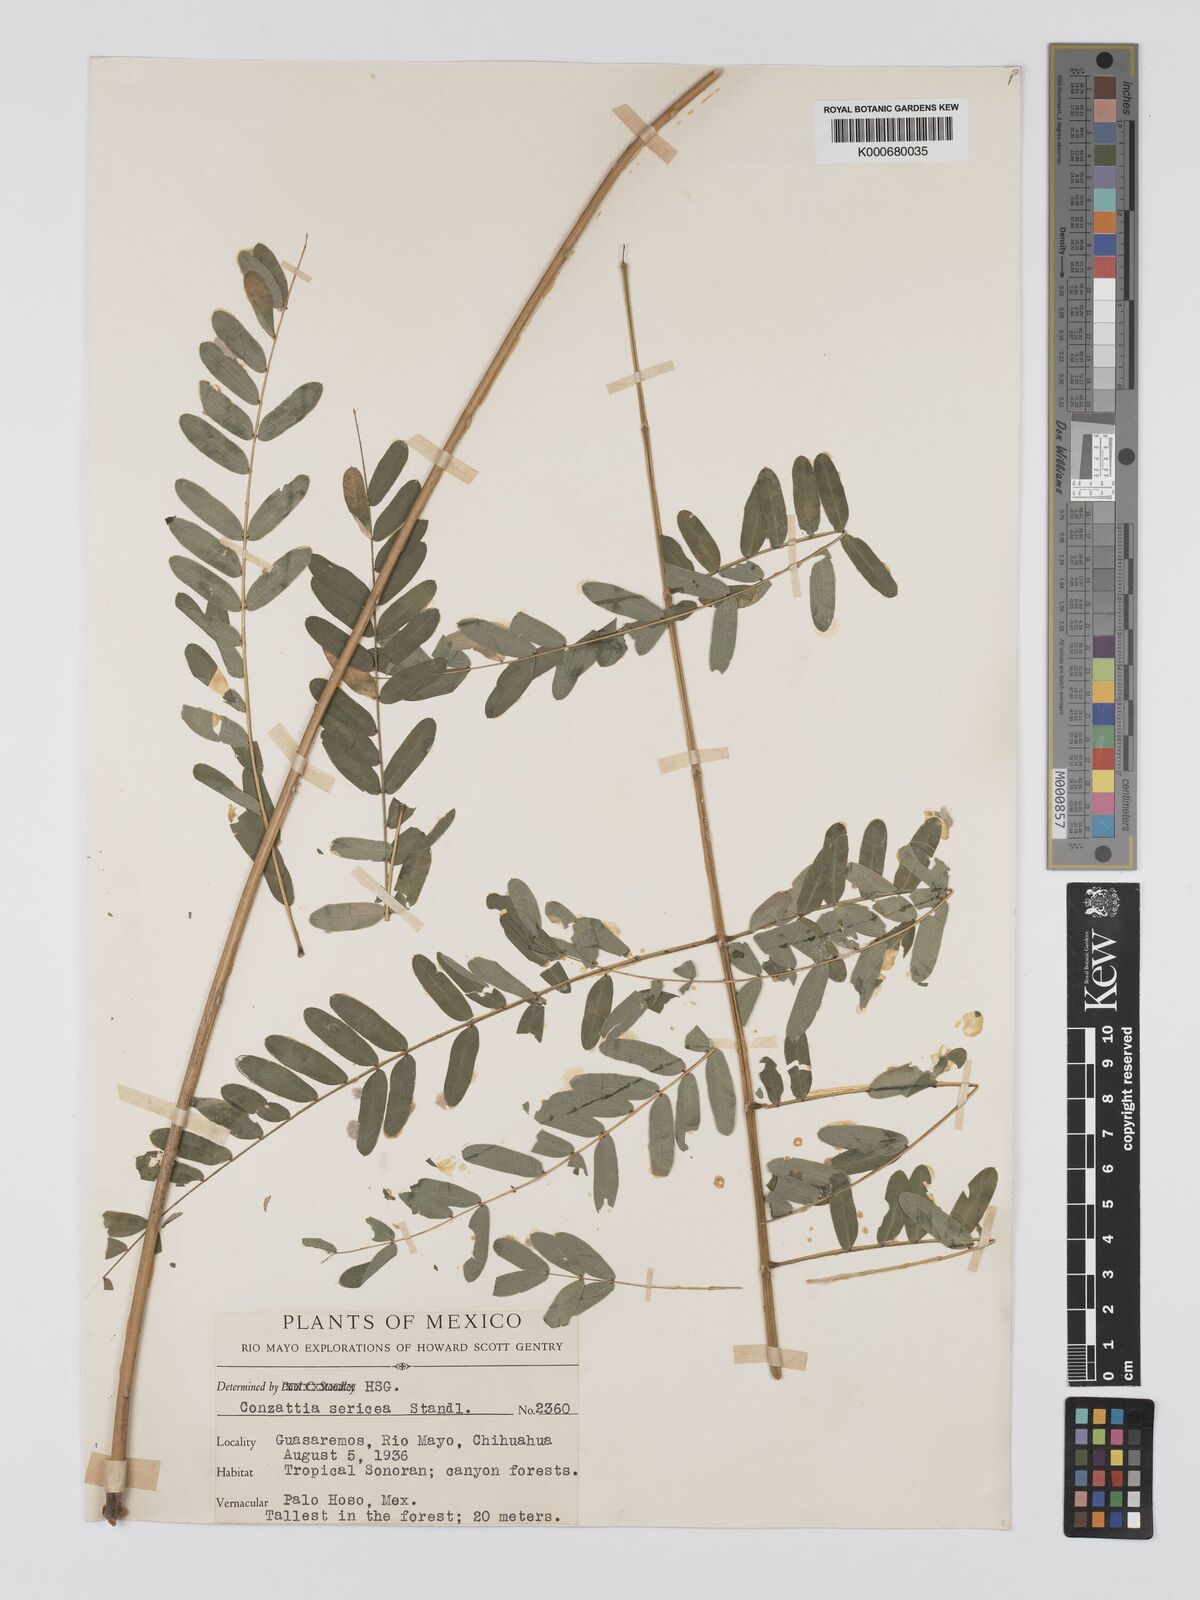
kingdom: Plantae
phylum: Tracheophyta
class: Magnoliopsida
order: Fabales
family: Fabaceae
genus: Conzattia
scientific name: Conzattia sericea
